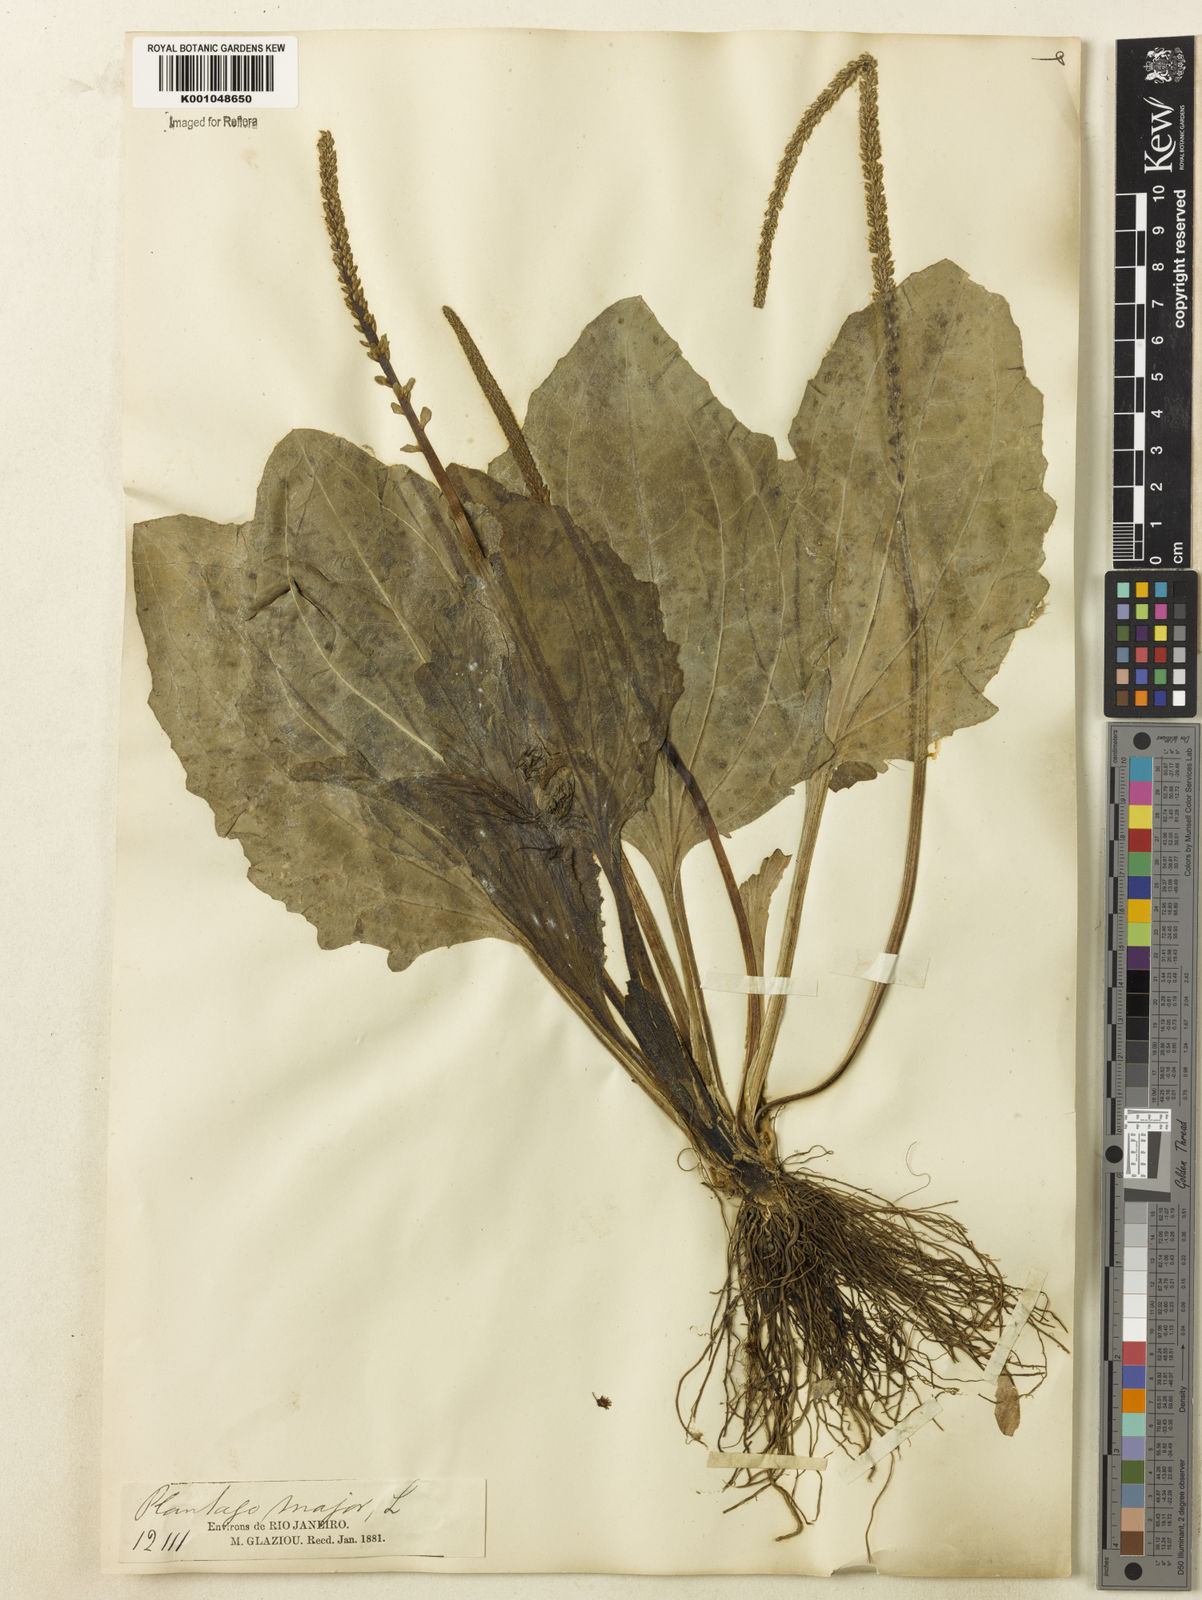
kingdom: Plantae
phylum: Tracheophyta
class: Magnoliopsida
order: Lamiales
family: Plantaginaceae
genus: Plantago
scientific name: Plantago major
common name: Common plantain
